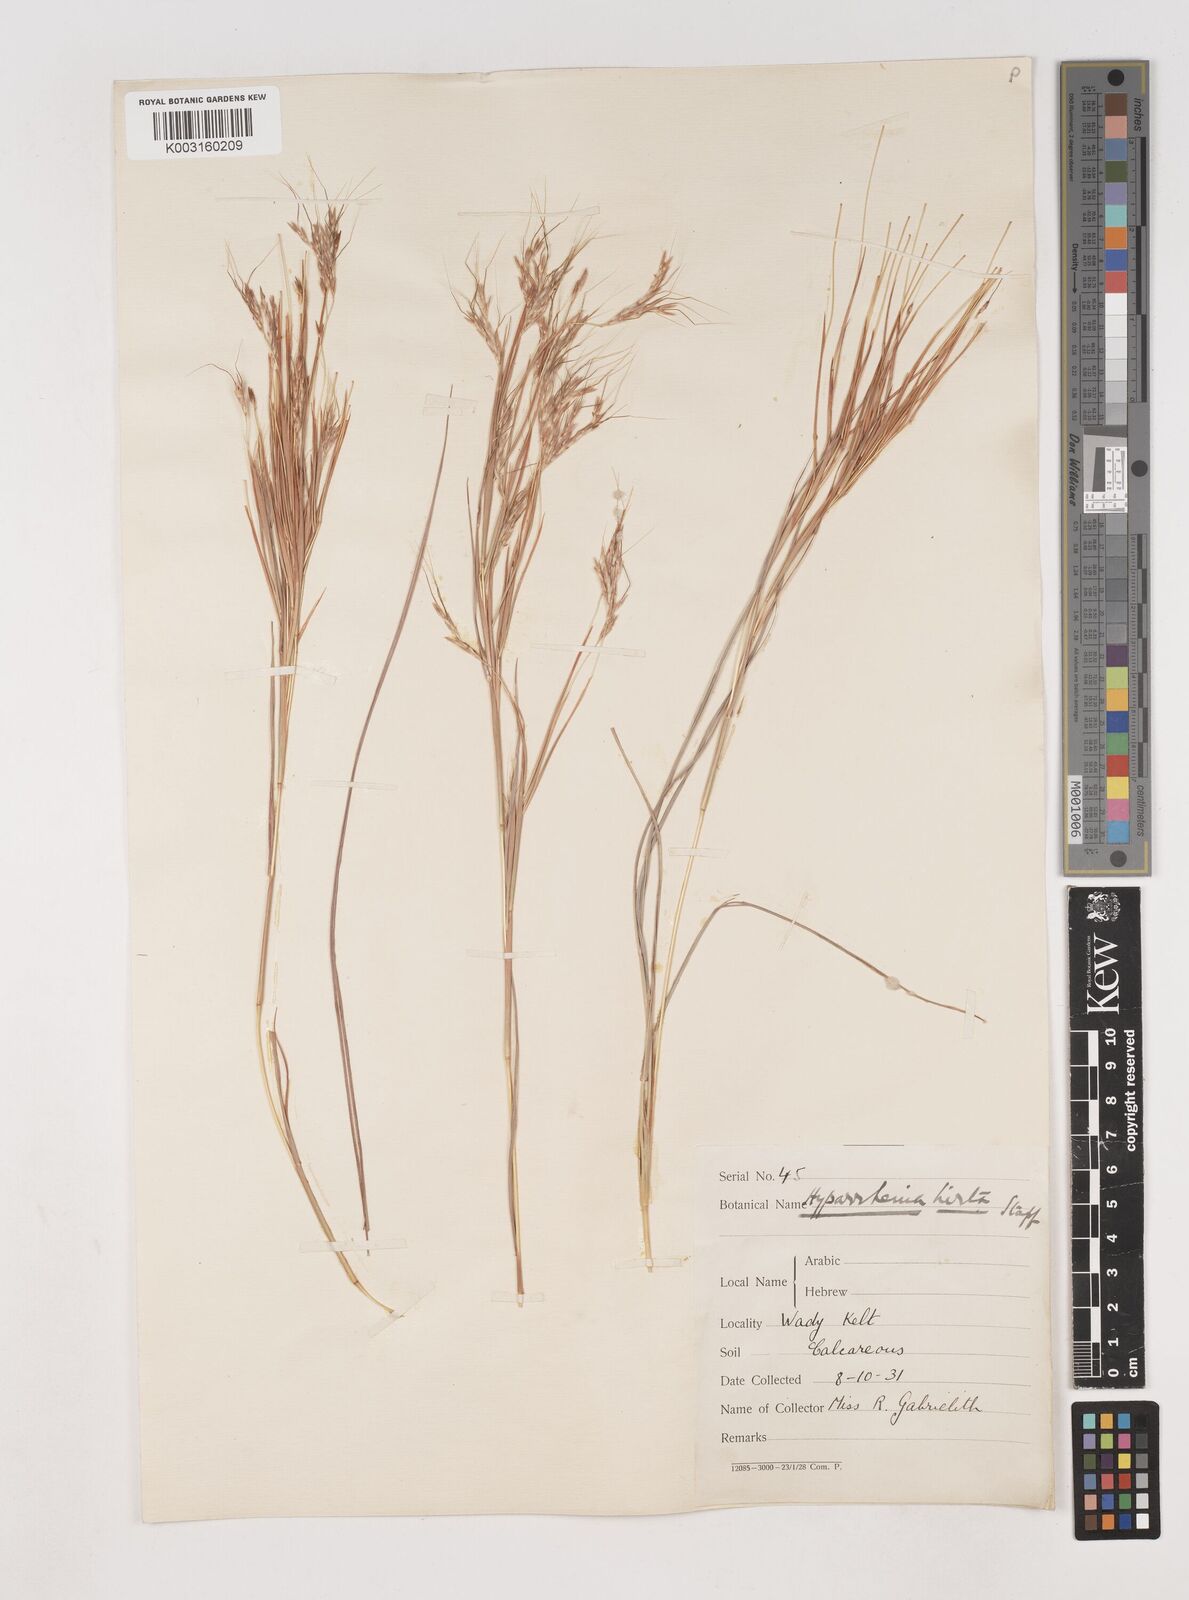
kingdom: Plantae
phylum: Tracheophyta
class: Liliopsida
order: Poales
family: Poaceae
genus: Hyparrhenia
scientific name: Hyparrhenia hirta
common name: Thatching grass
